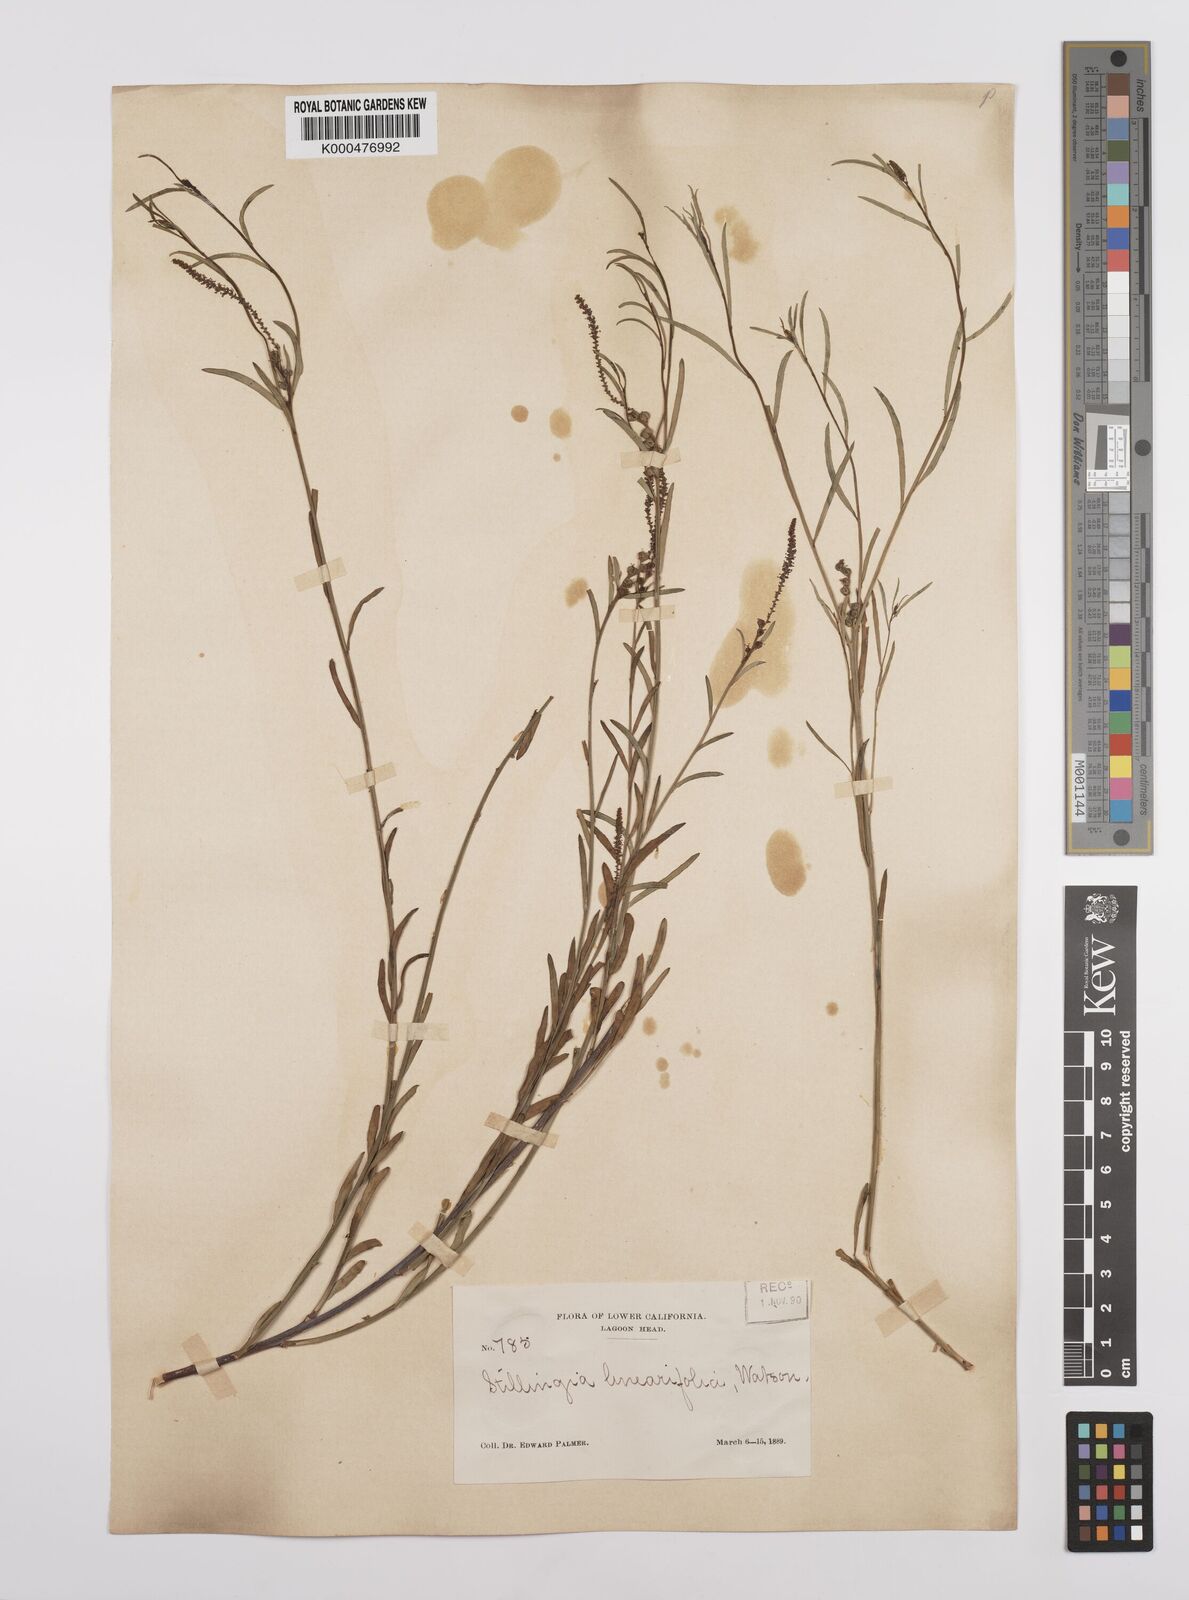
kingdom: Plantae
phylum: Tracheophyta
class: Magnoliopsida
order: Malpighiales
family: Euphorbiaceae
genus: Stillingia
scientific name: Stillingia linearifolia
